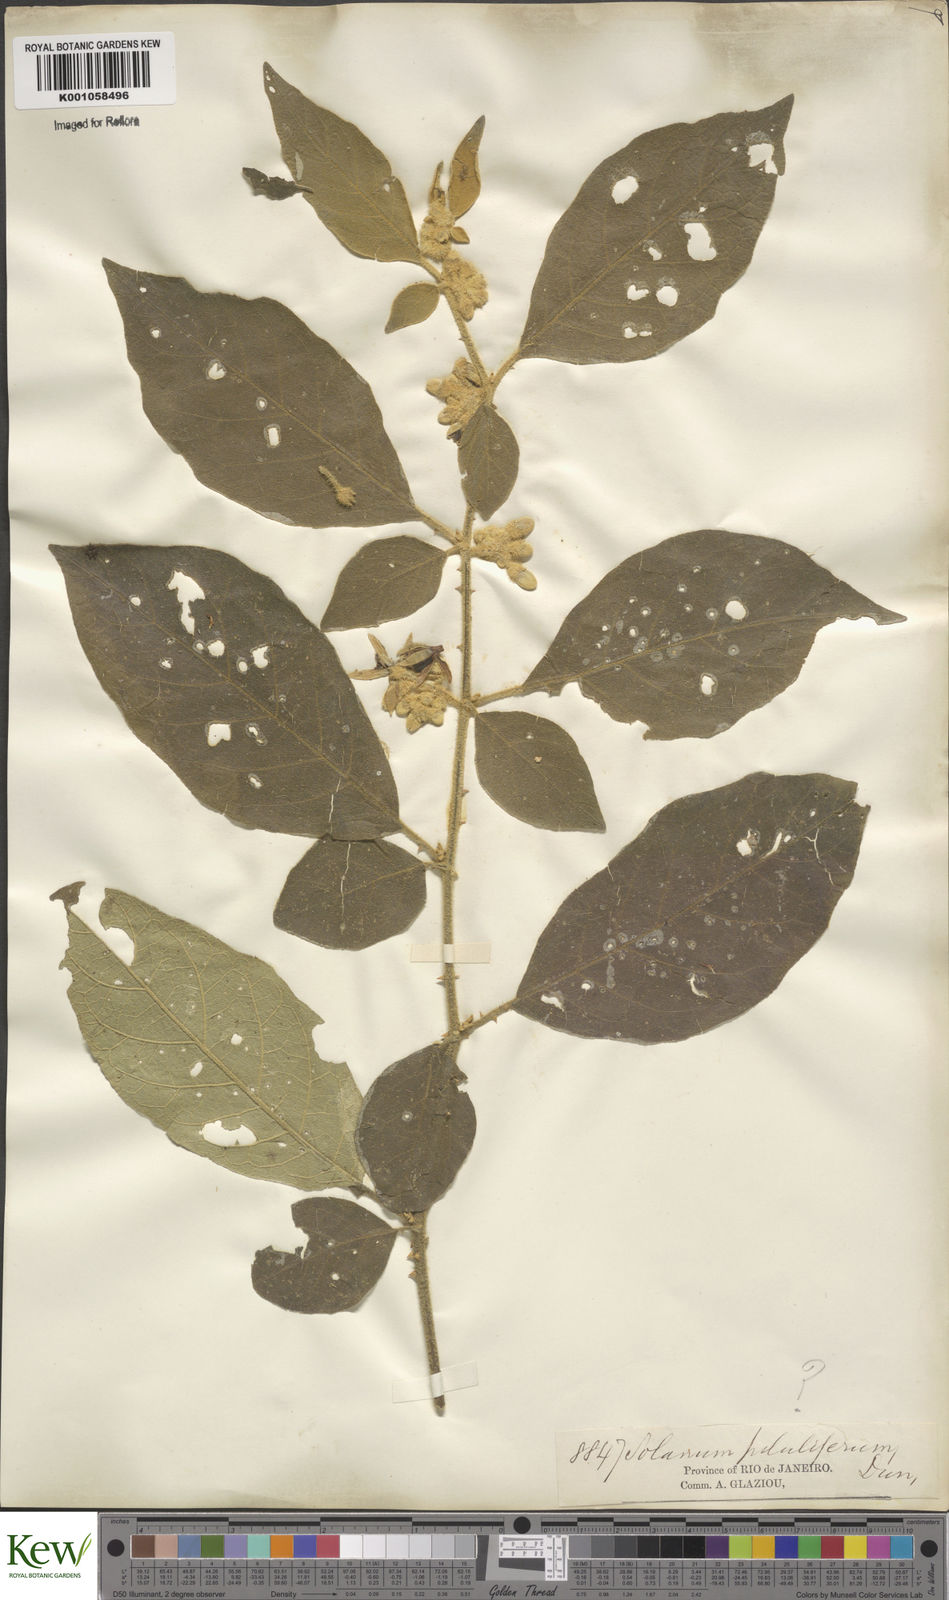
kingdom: Plantae
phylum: Tracheophyta
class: Magnoliopsida
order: Solanales
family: Solanaceae
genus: Solanum
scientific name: Solanum piluliferum
